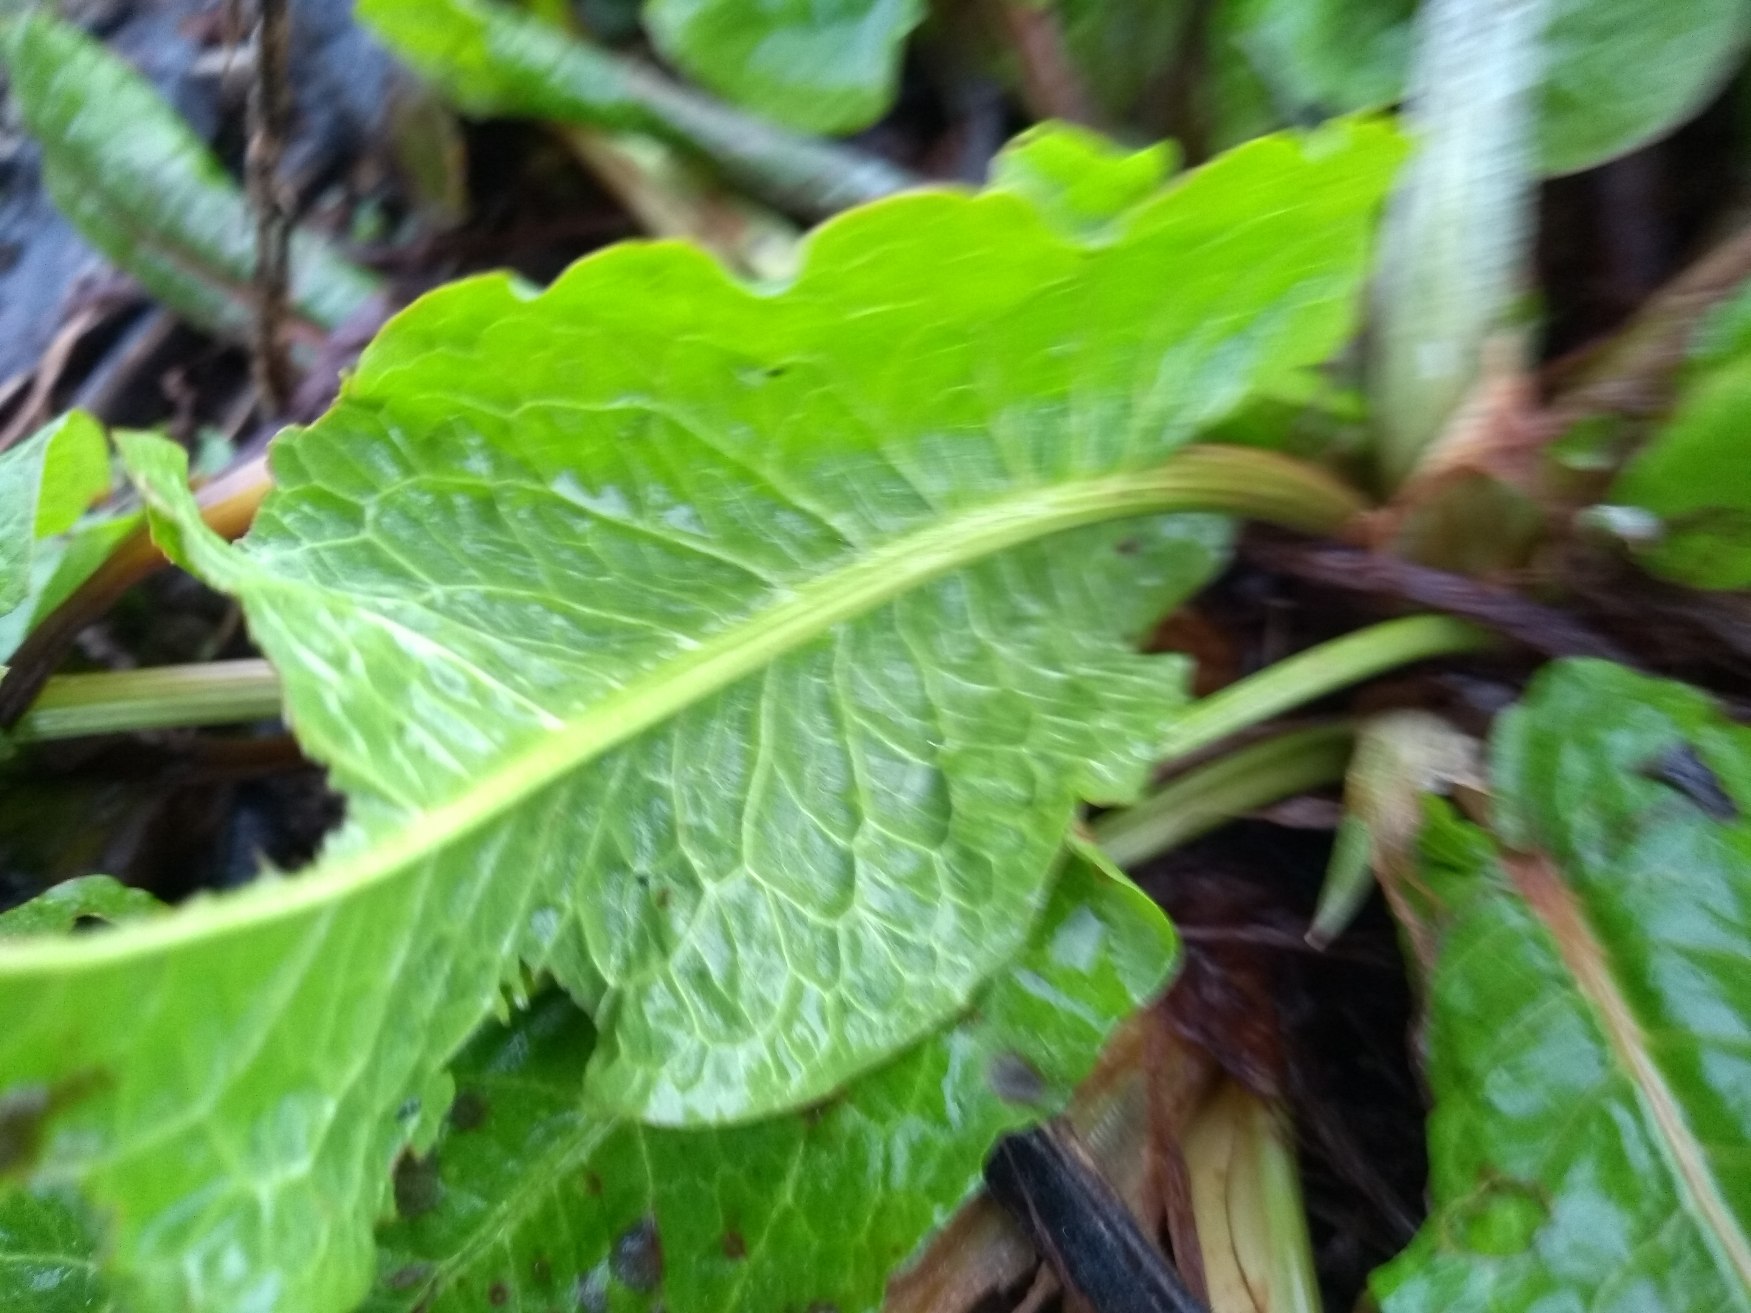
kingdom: Plantae
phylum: Tracheophyta
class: Magnoliopsida
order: Caryophyllales
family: Polygonaceae
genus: Rumex
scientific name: Rumex obtusifolius
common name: Butbladet skræppe
